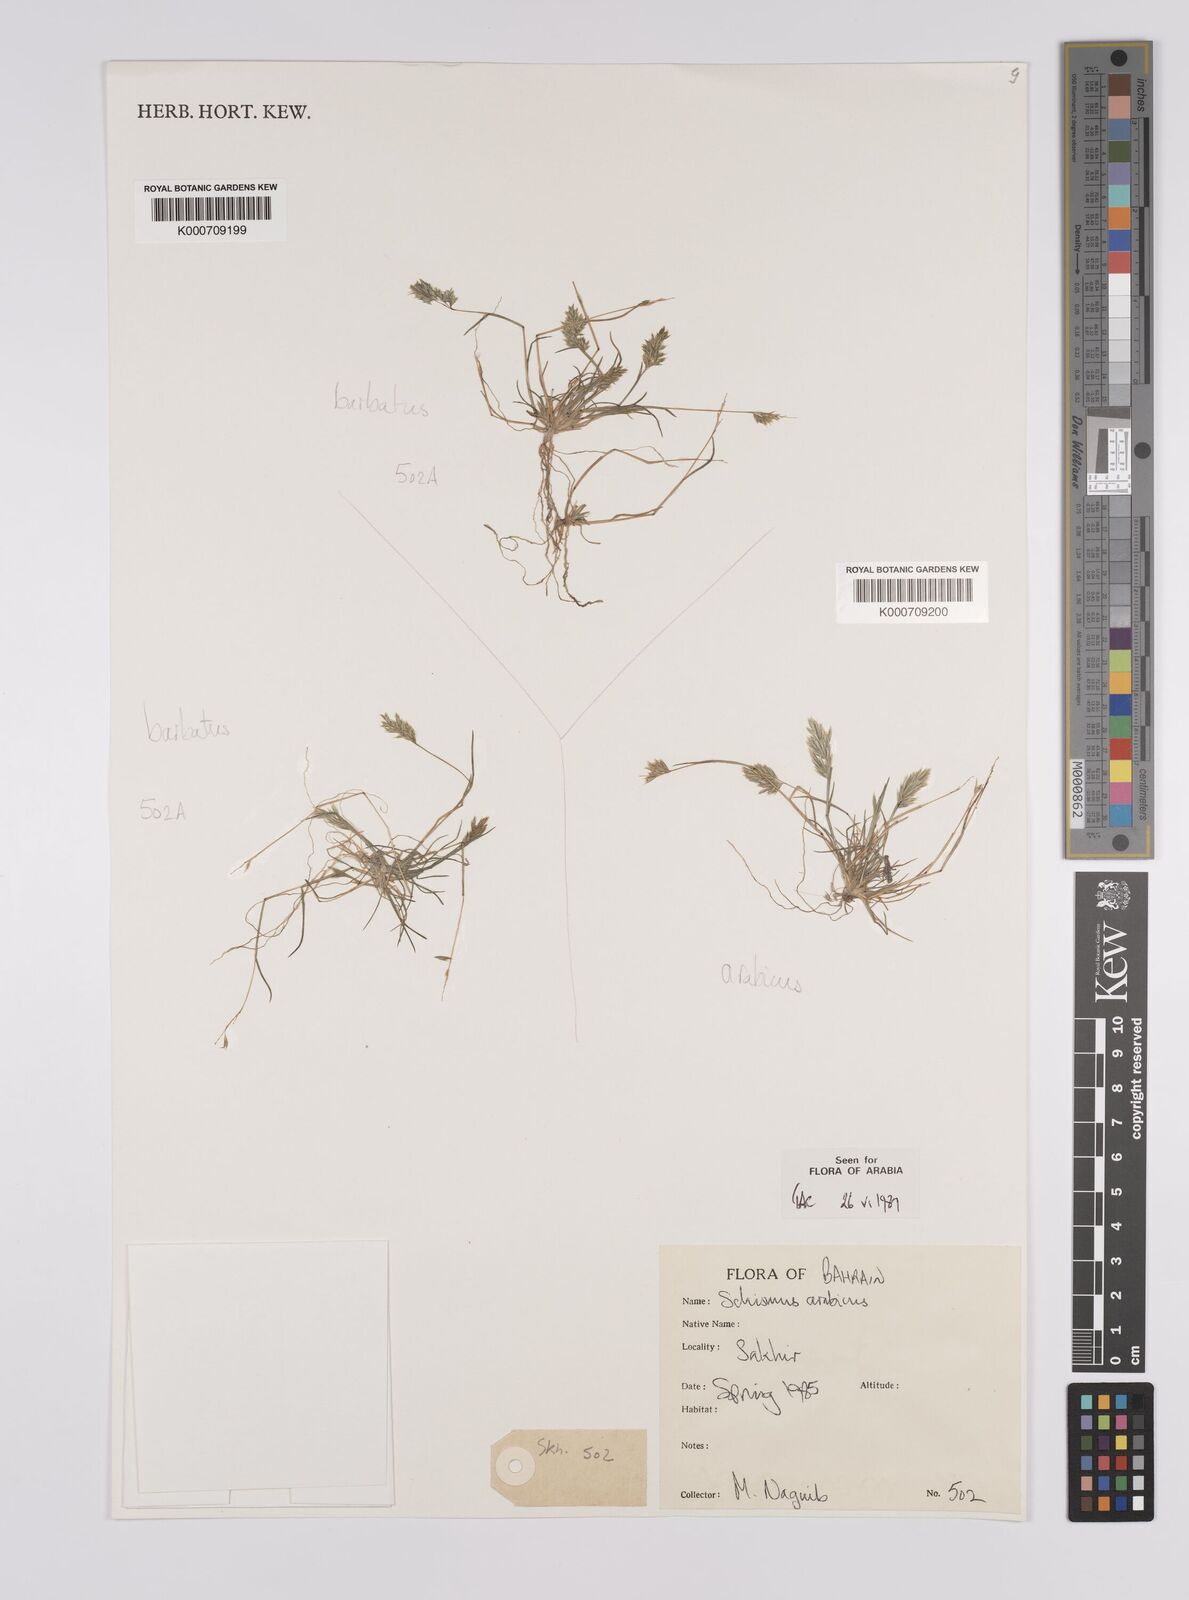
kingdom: Plantae
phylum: Tracheophyta
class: Liliopsida
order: Poales
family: Poaceae
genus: Schismus
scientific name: Schismus barbatus
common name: Kelch-grass
